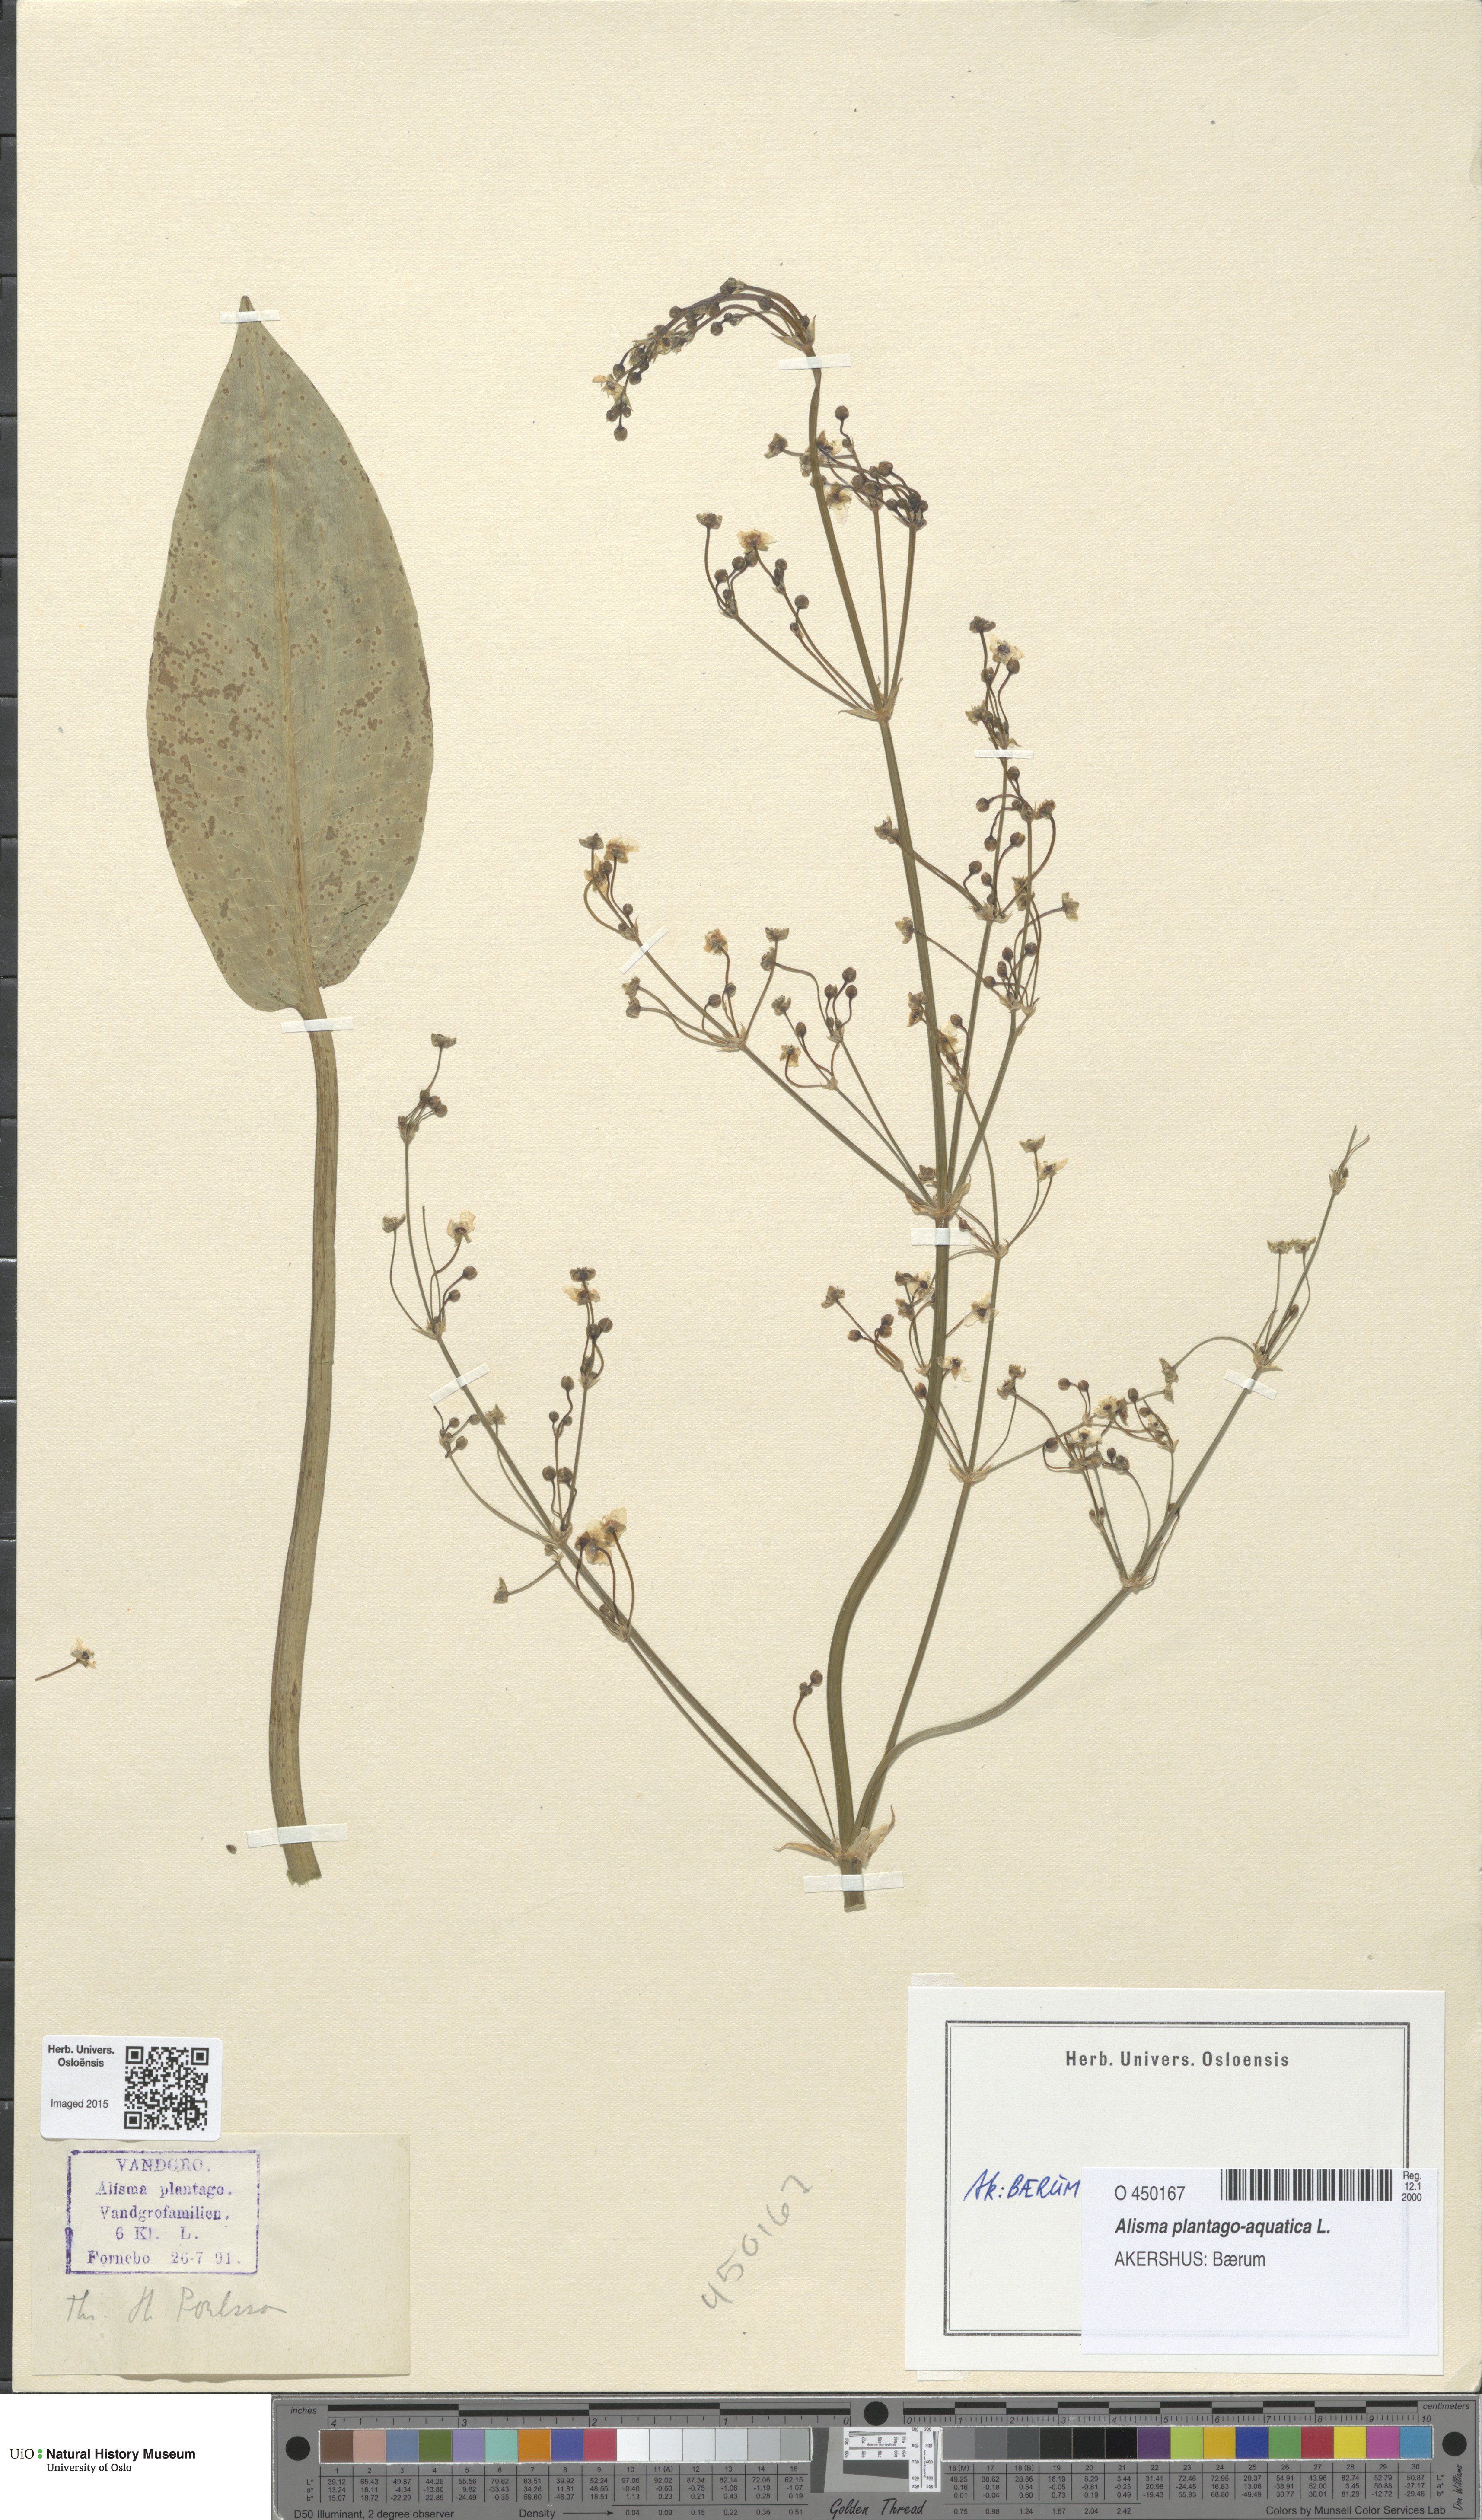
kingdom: Plantae
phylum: Tracheophyta
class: Liliopsida
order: Alismatales
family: Alismataceae
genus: Alisma
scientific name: Alisma plantago-aquatica
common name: Water-plantain
